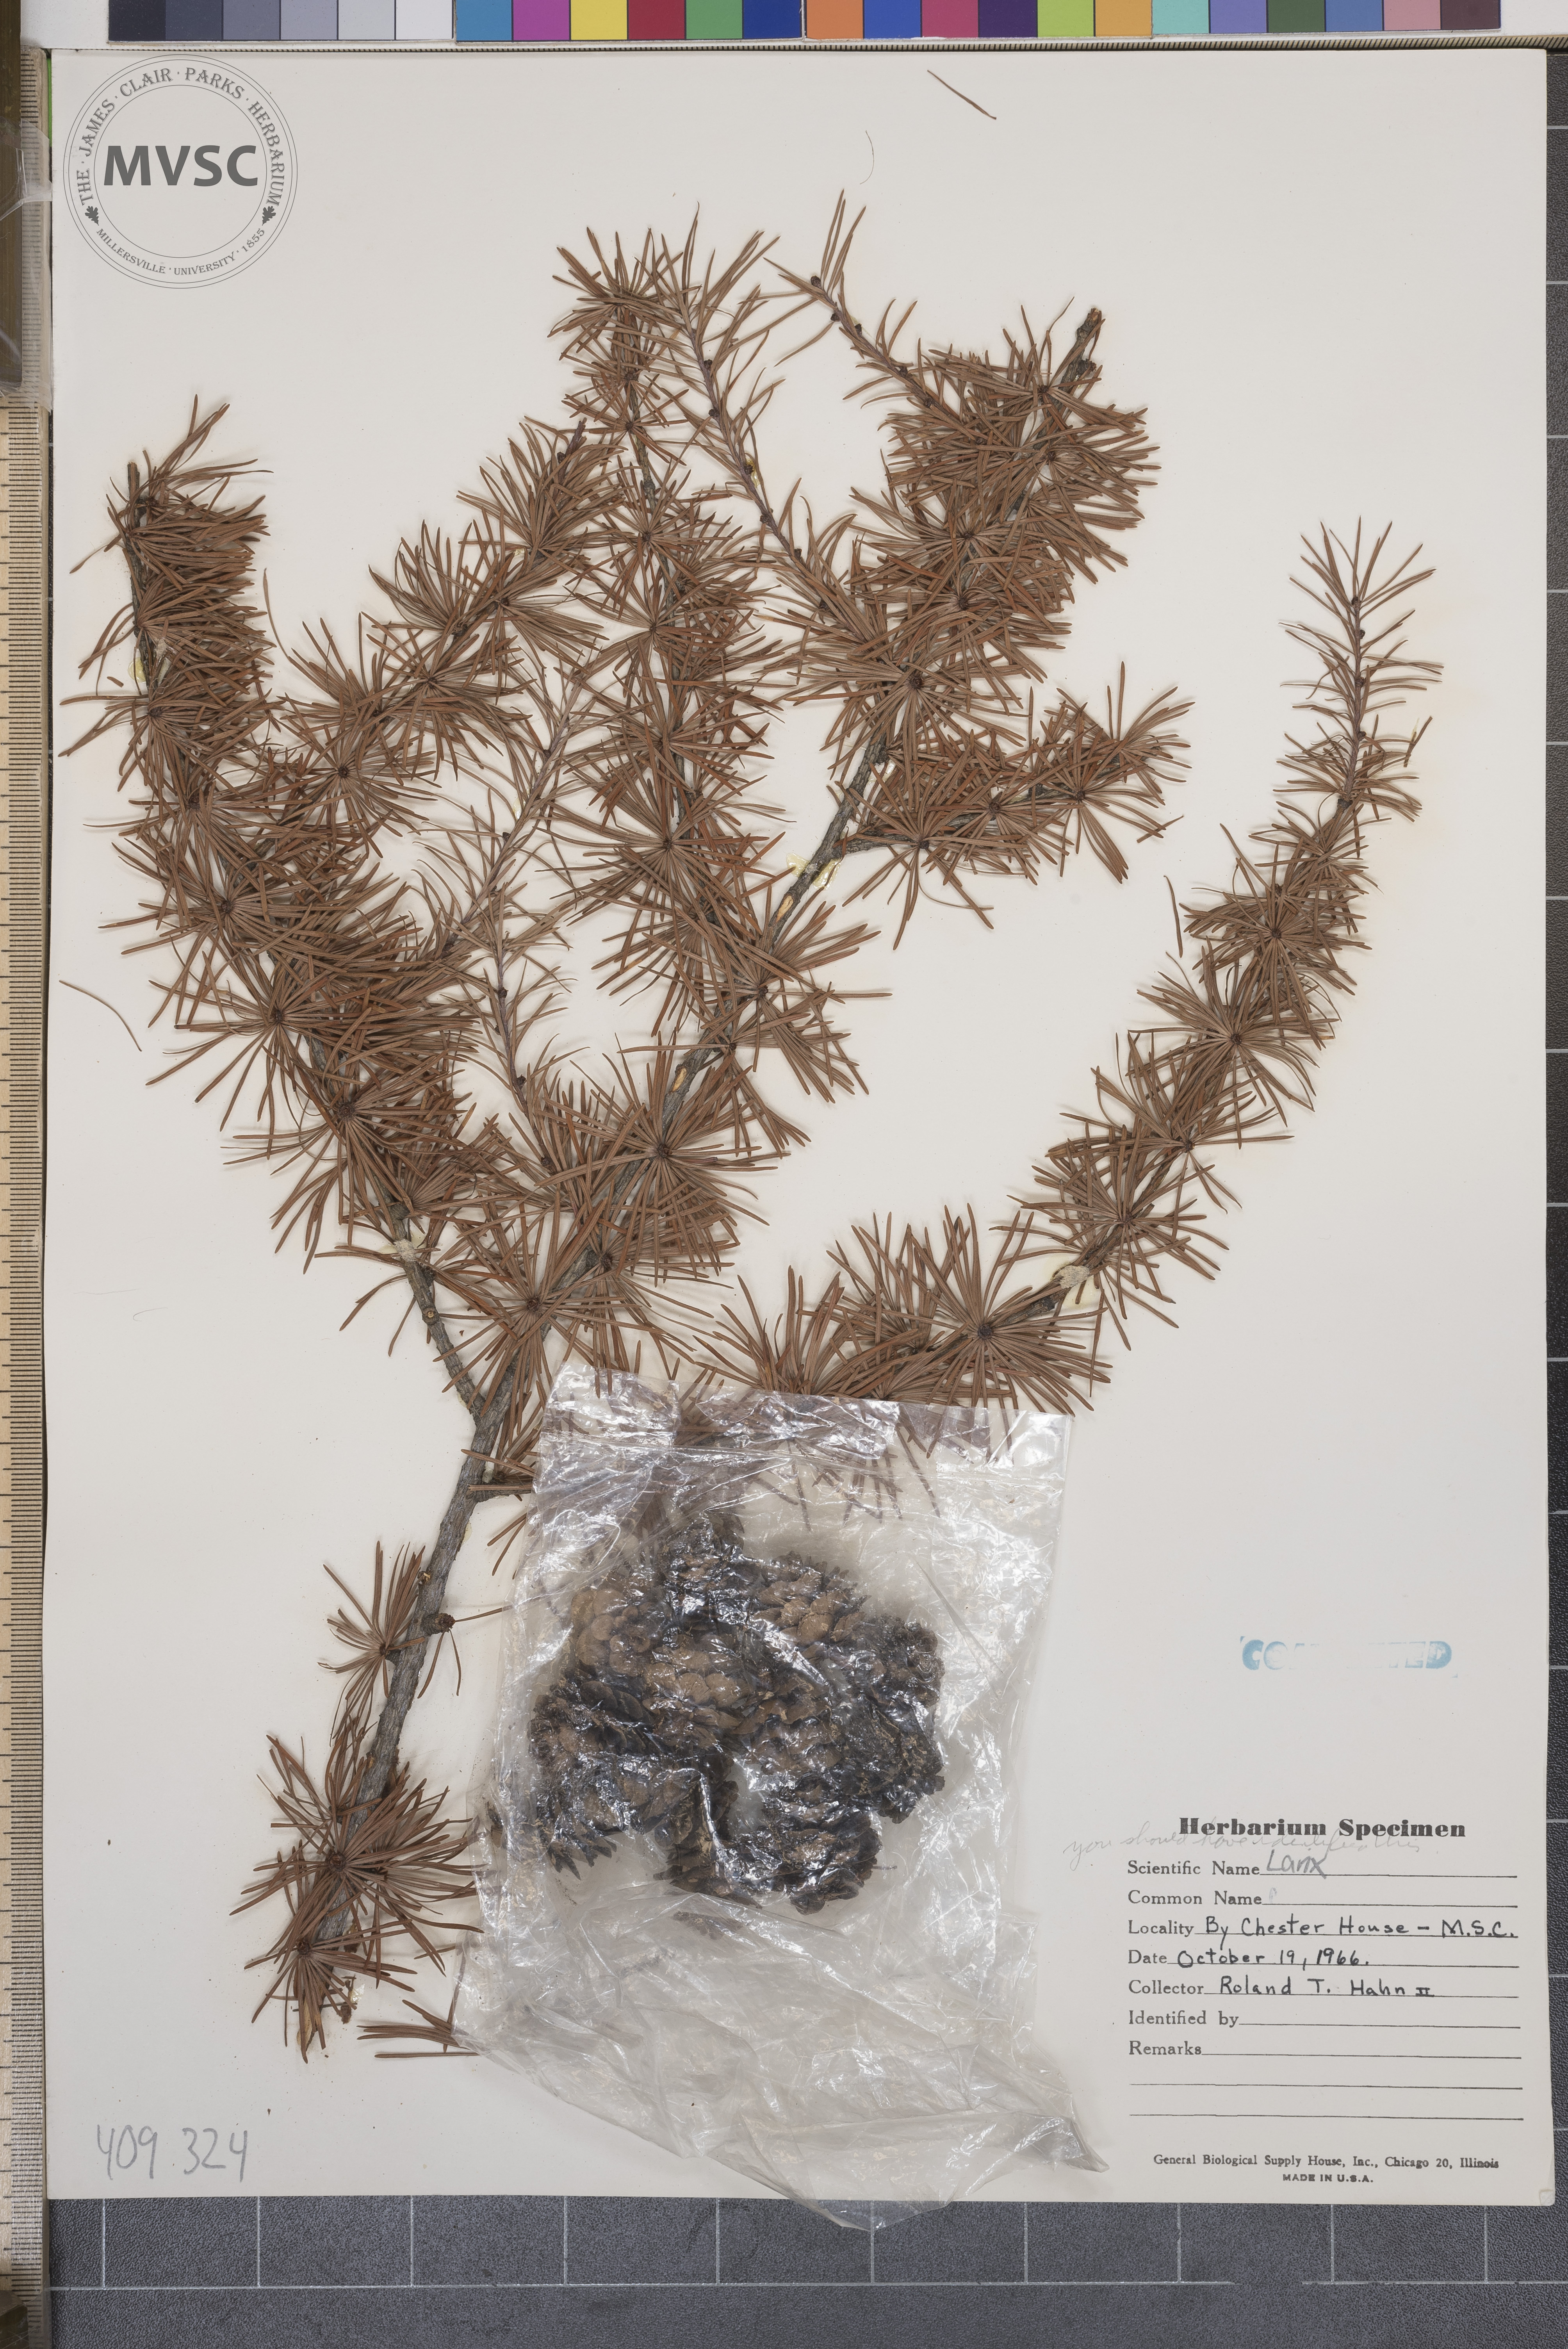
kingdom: Plantae
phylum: Tracheophyta
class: Pinopsida
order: Pinales
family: Pinaceae
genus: Larix
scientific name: Larix
